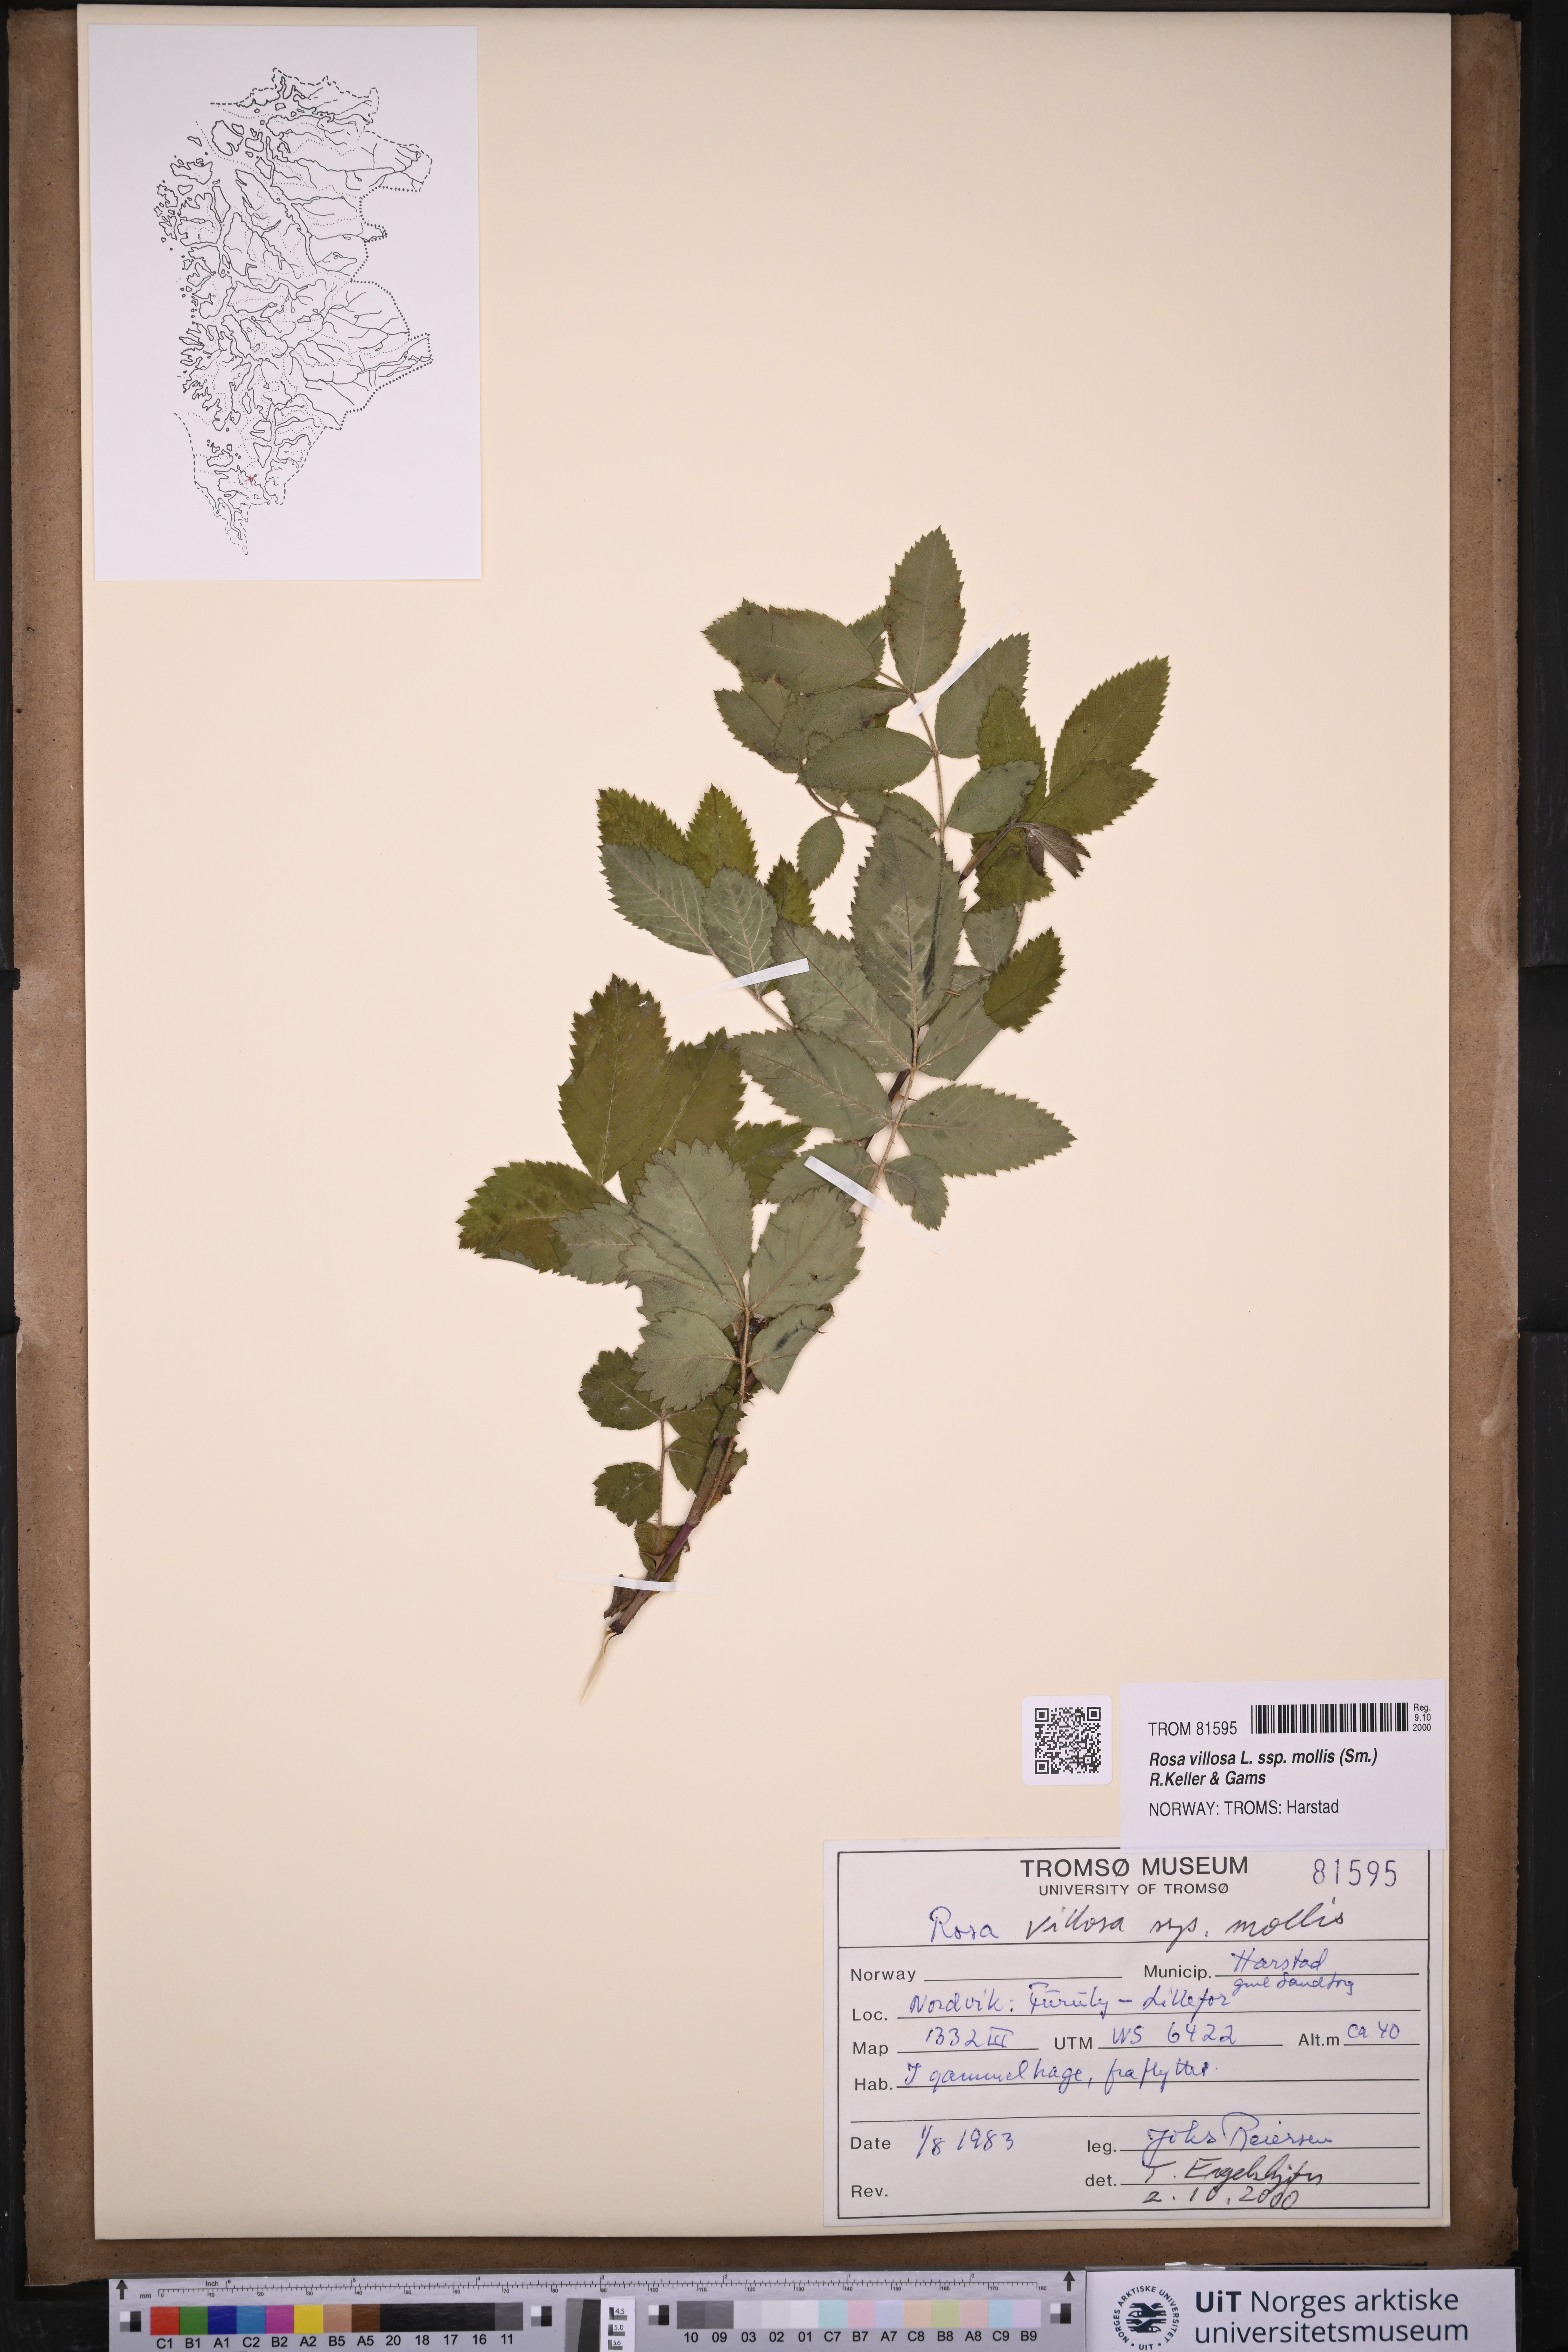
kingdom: Plantae
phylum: Tracheophyta
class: Magnoliopsida
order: Rosales
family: Rosaceae
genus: Rosa
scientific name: Rosa mollis
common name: Rose
